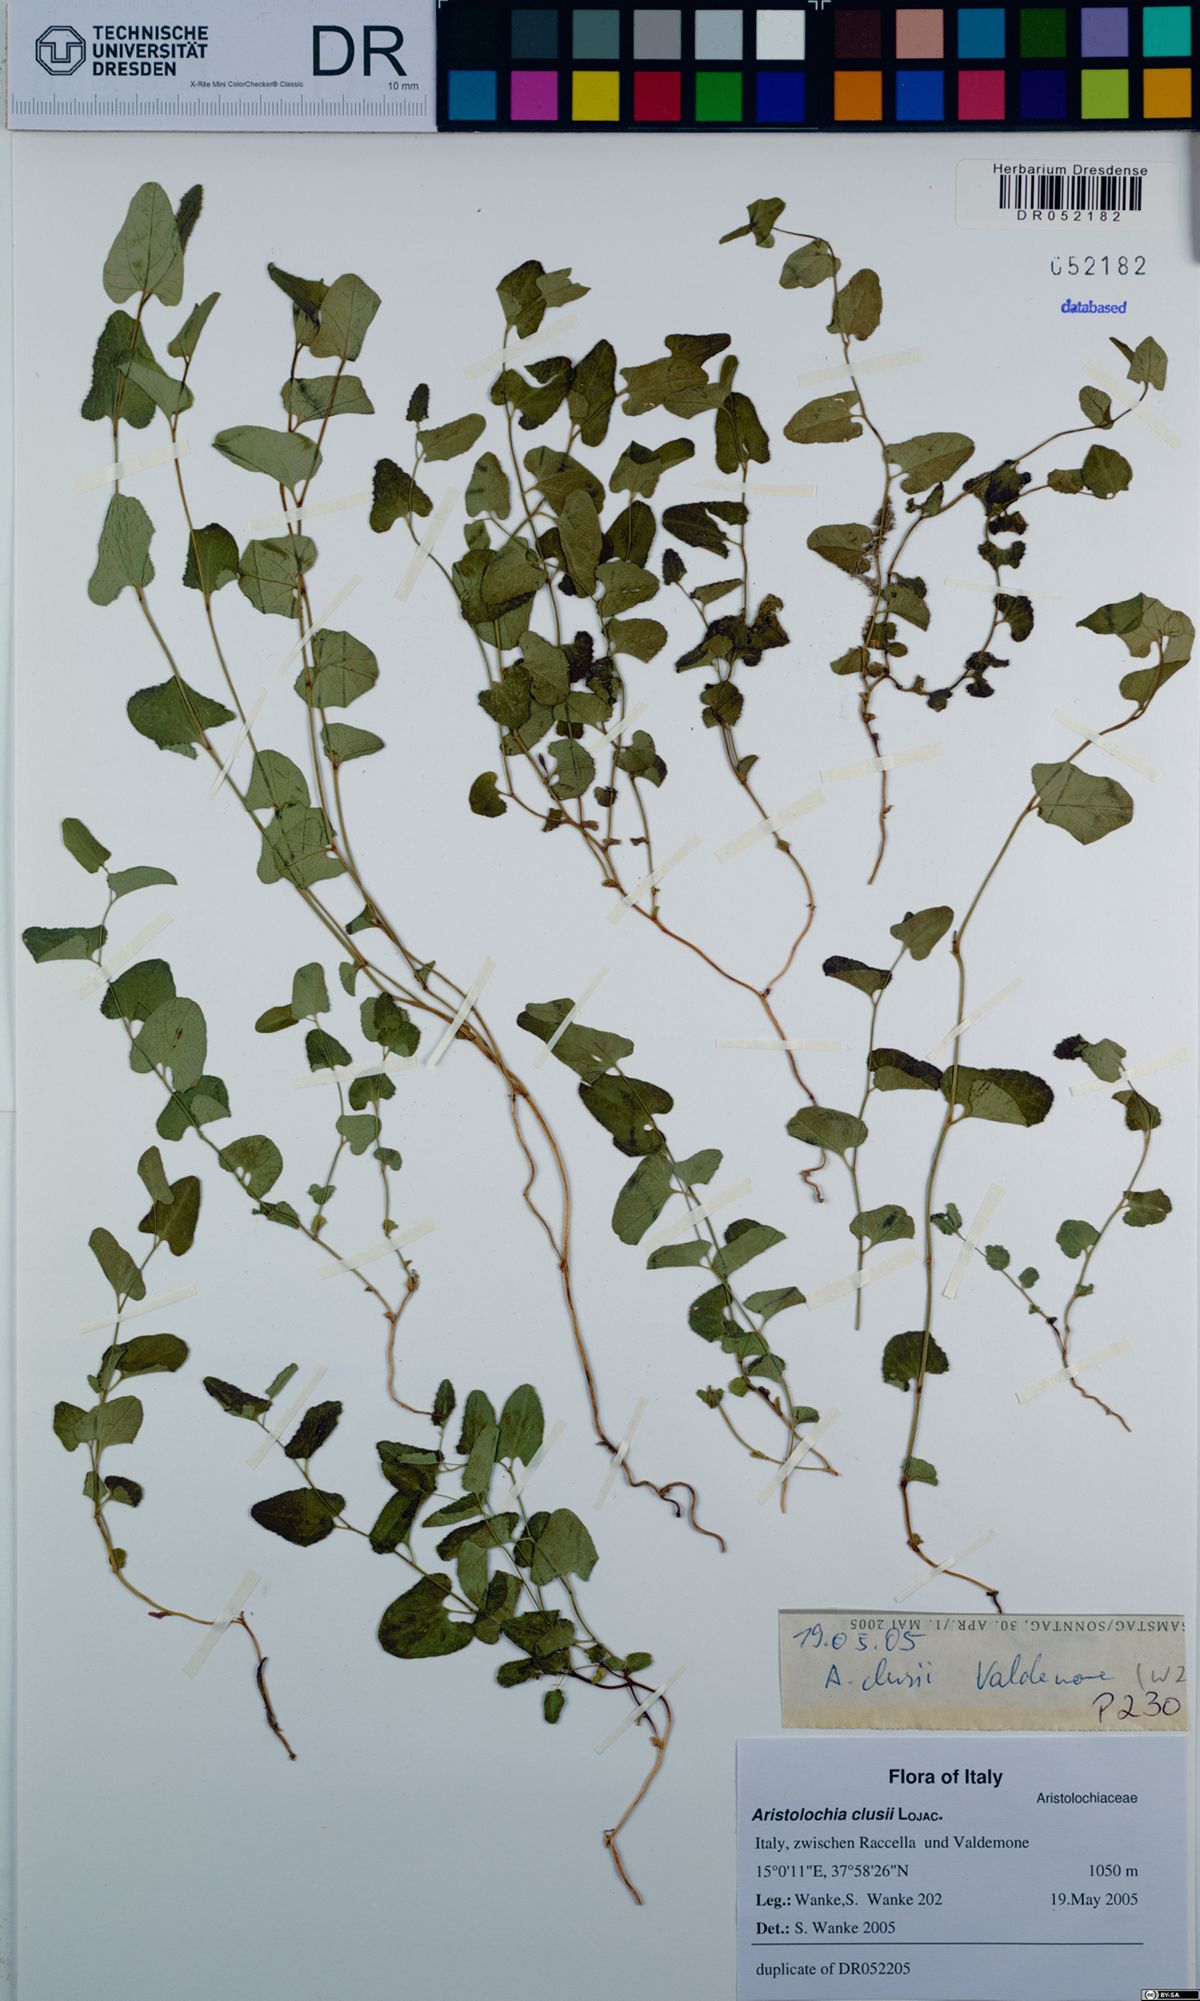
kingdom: Plantae
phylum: Tracheophyta
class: Magnoliopsida
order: Piperales
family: Aristolochiaceae
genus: Aristolochia
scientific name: Aristolochia clusii
